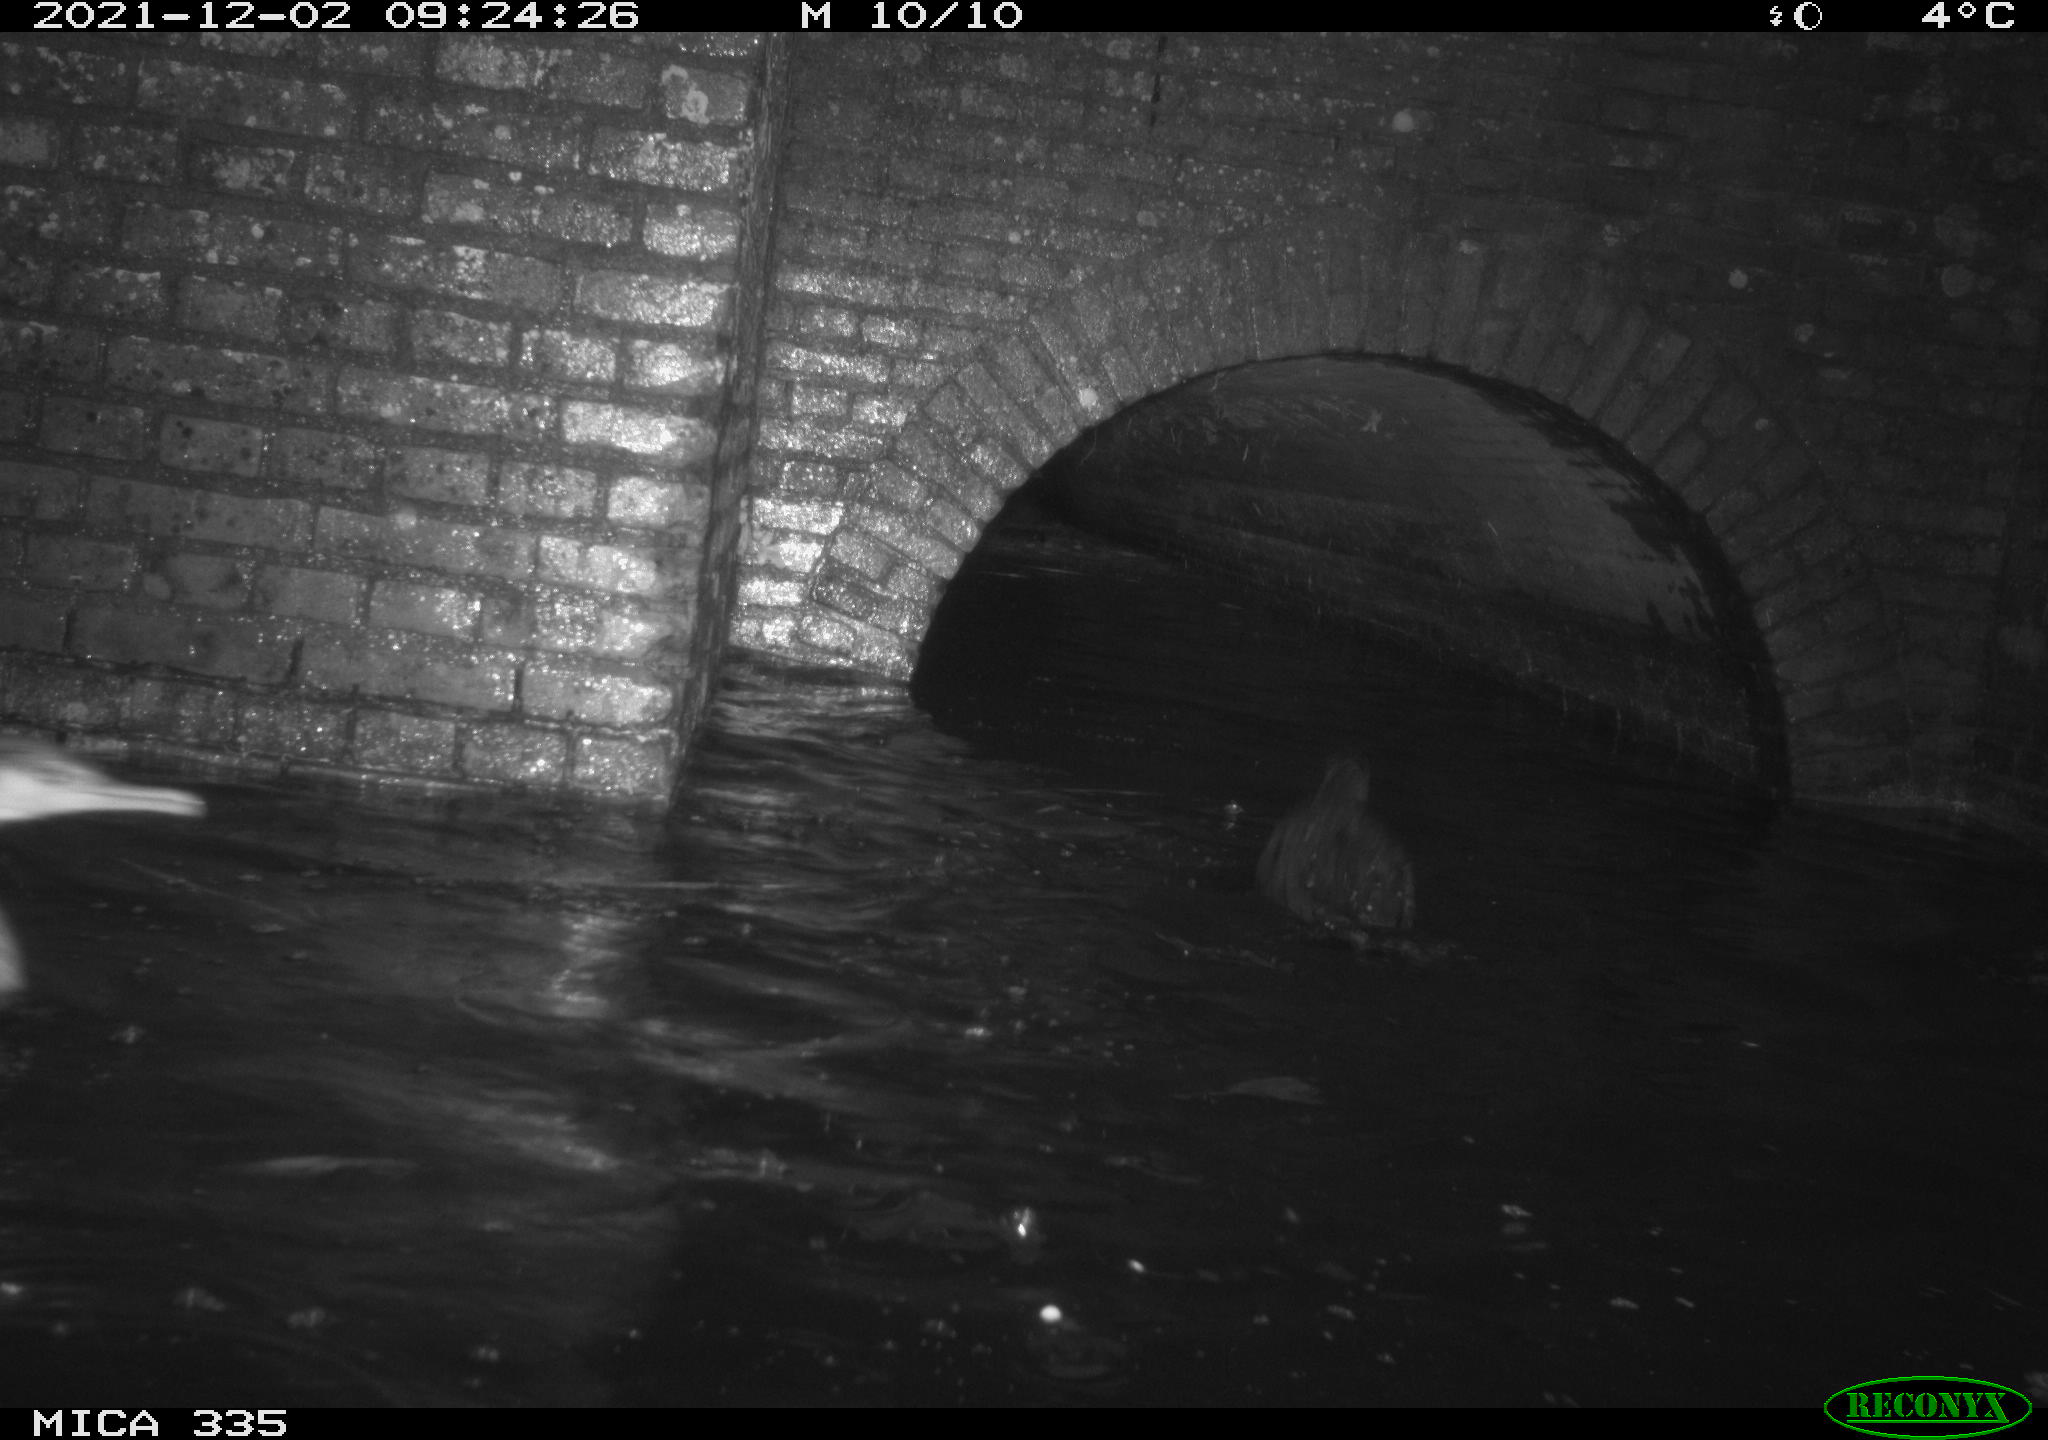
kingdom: Animalia
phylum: Chordata
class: Aves
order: Suliformes
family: Phalacrocoracidae
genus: Phalacrocorax
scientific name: Phalacrocorax carbo
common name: Great cormorant
